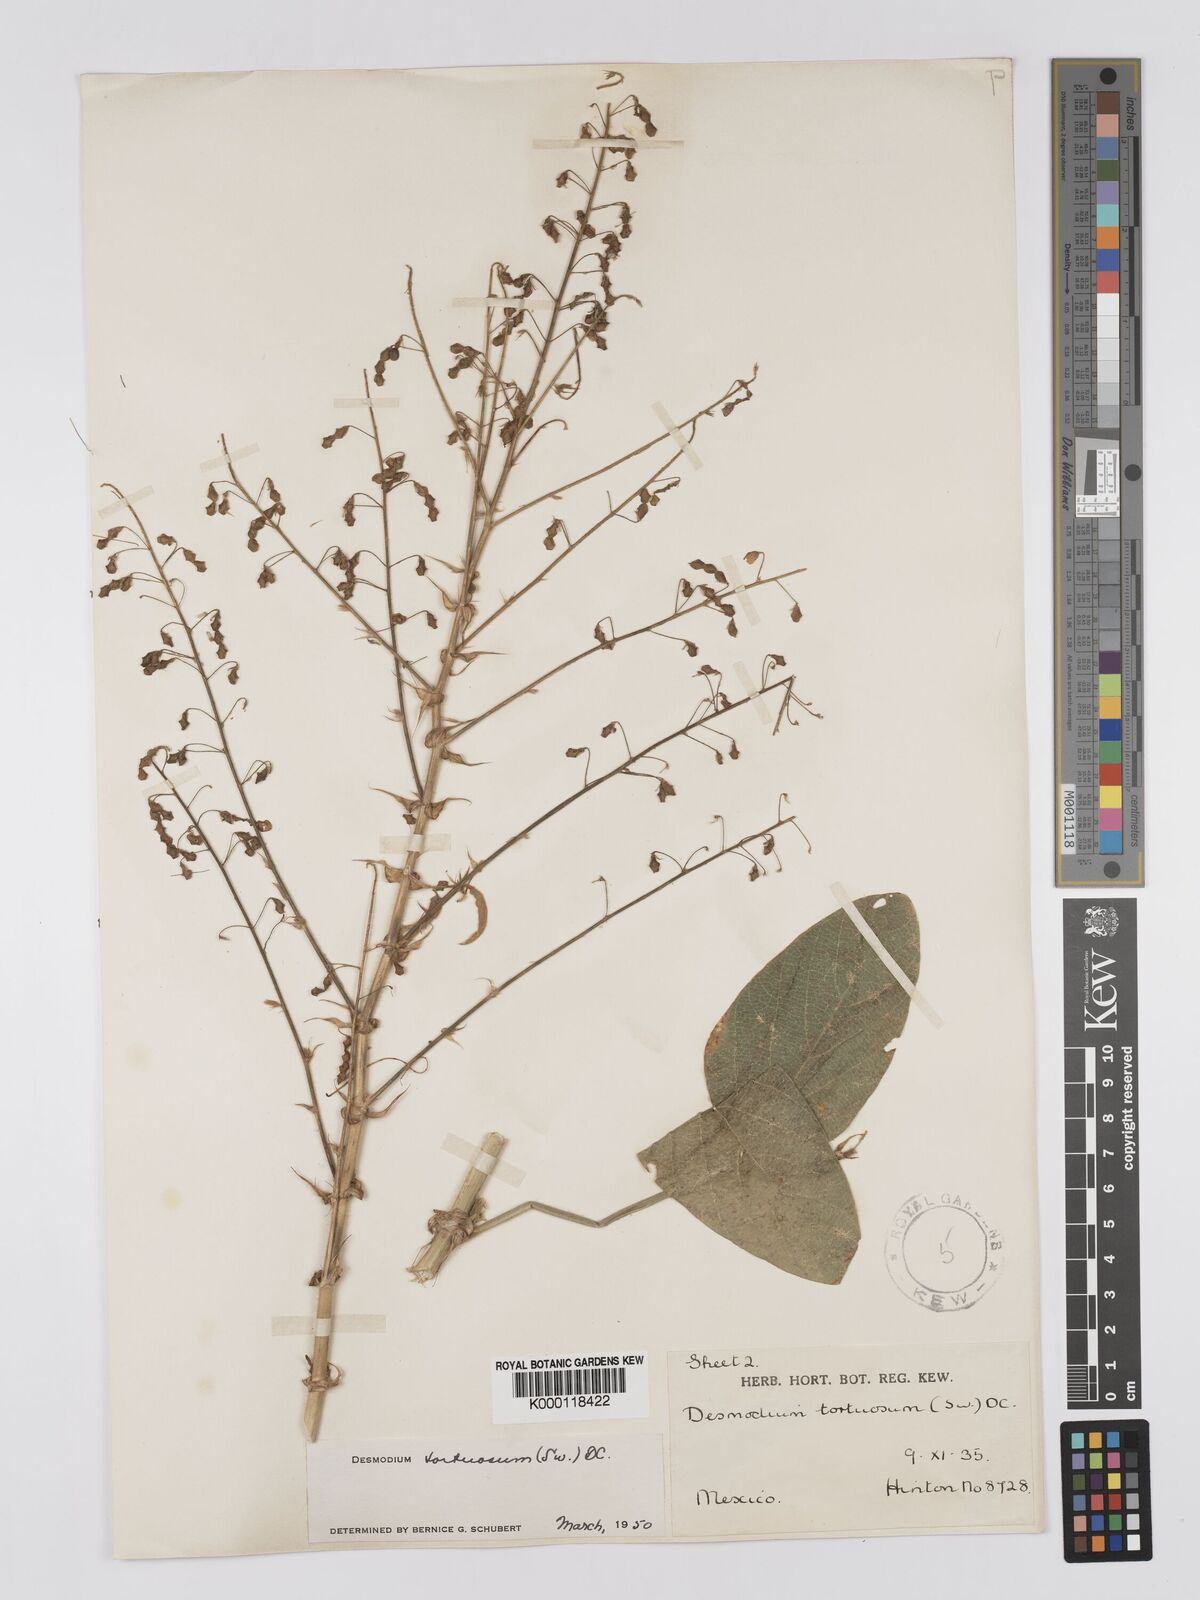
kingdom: Plantae
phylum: Tracheophyta
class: Magnoliopsida
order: Fabales
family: Fabaceae
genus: Desmodium
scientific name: Desmodium tortuosum
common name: Dixie ticktrefoil
